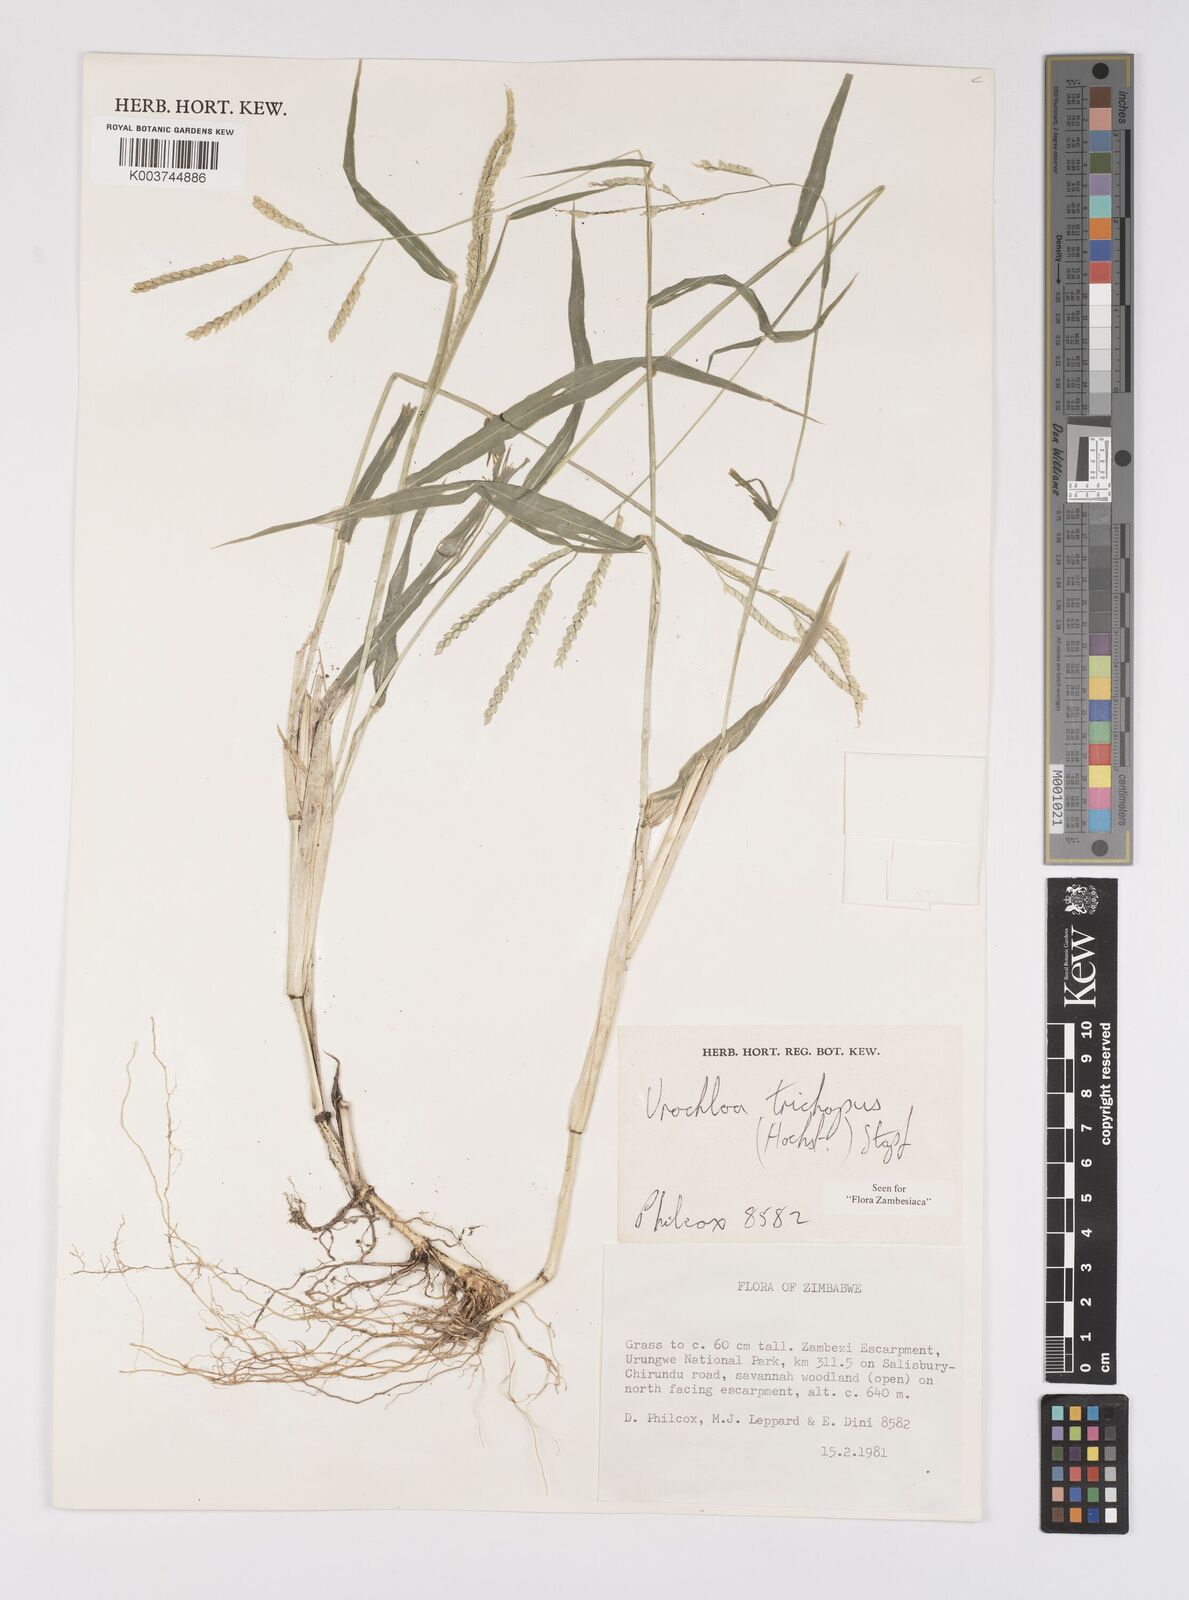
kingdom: Plantae
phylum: Tracheophyta
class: Liliopsida
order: Poales
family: Poaceae
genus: Urochloa
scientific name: Urochloa trichopus
